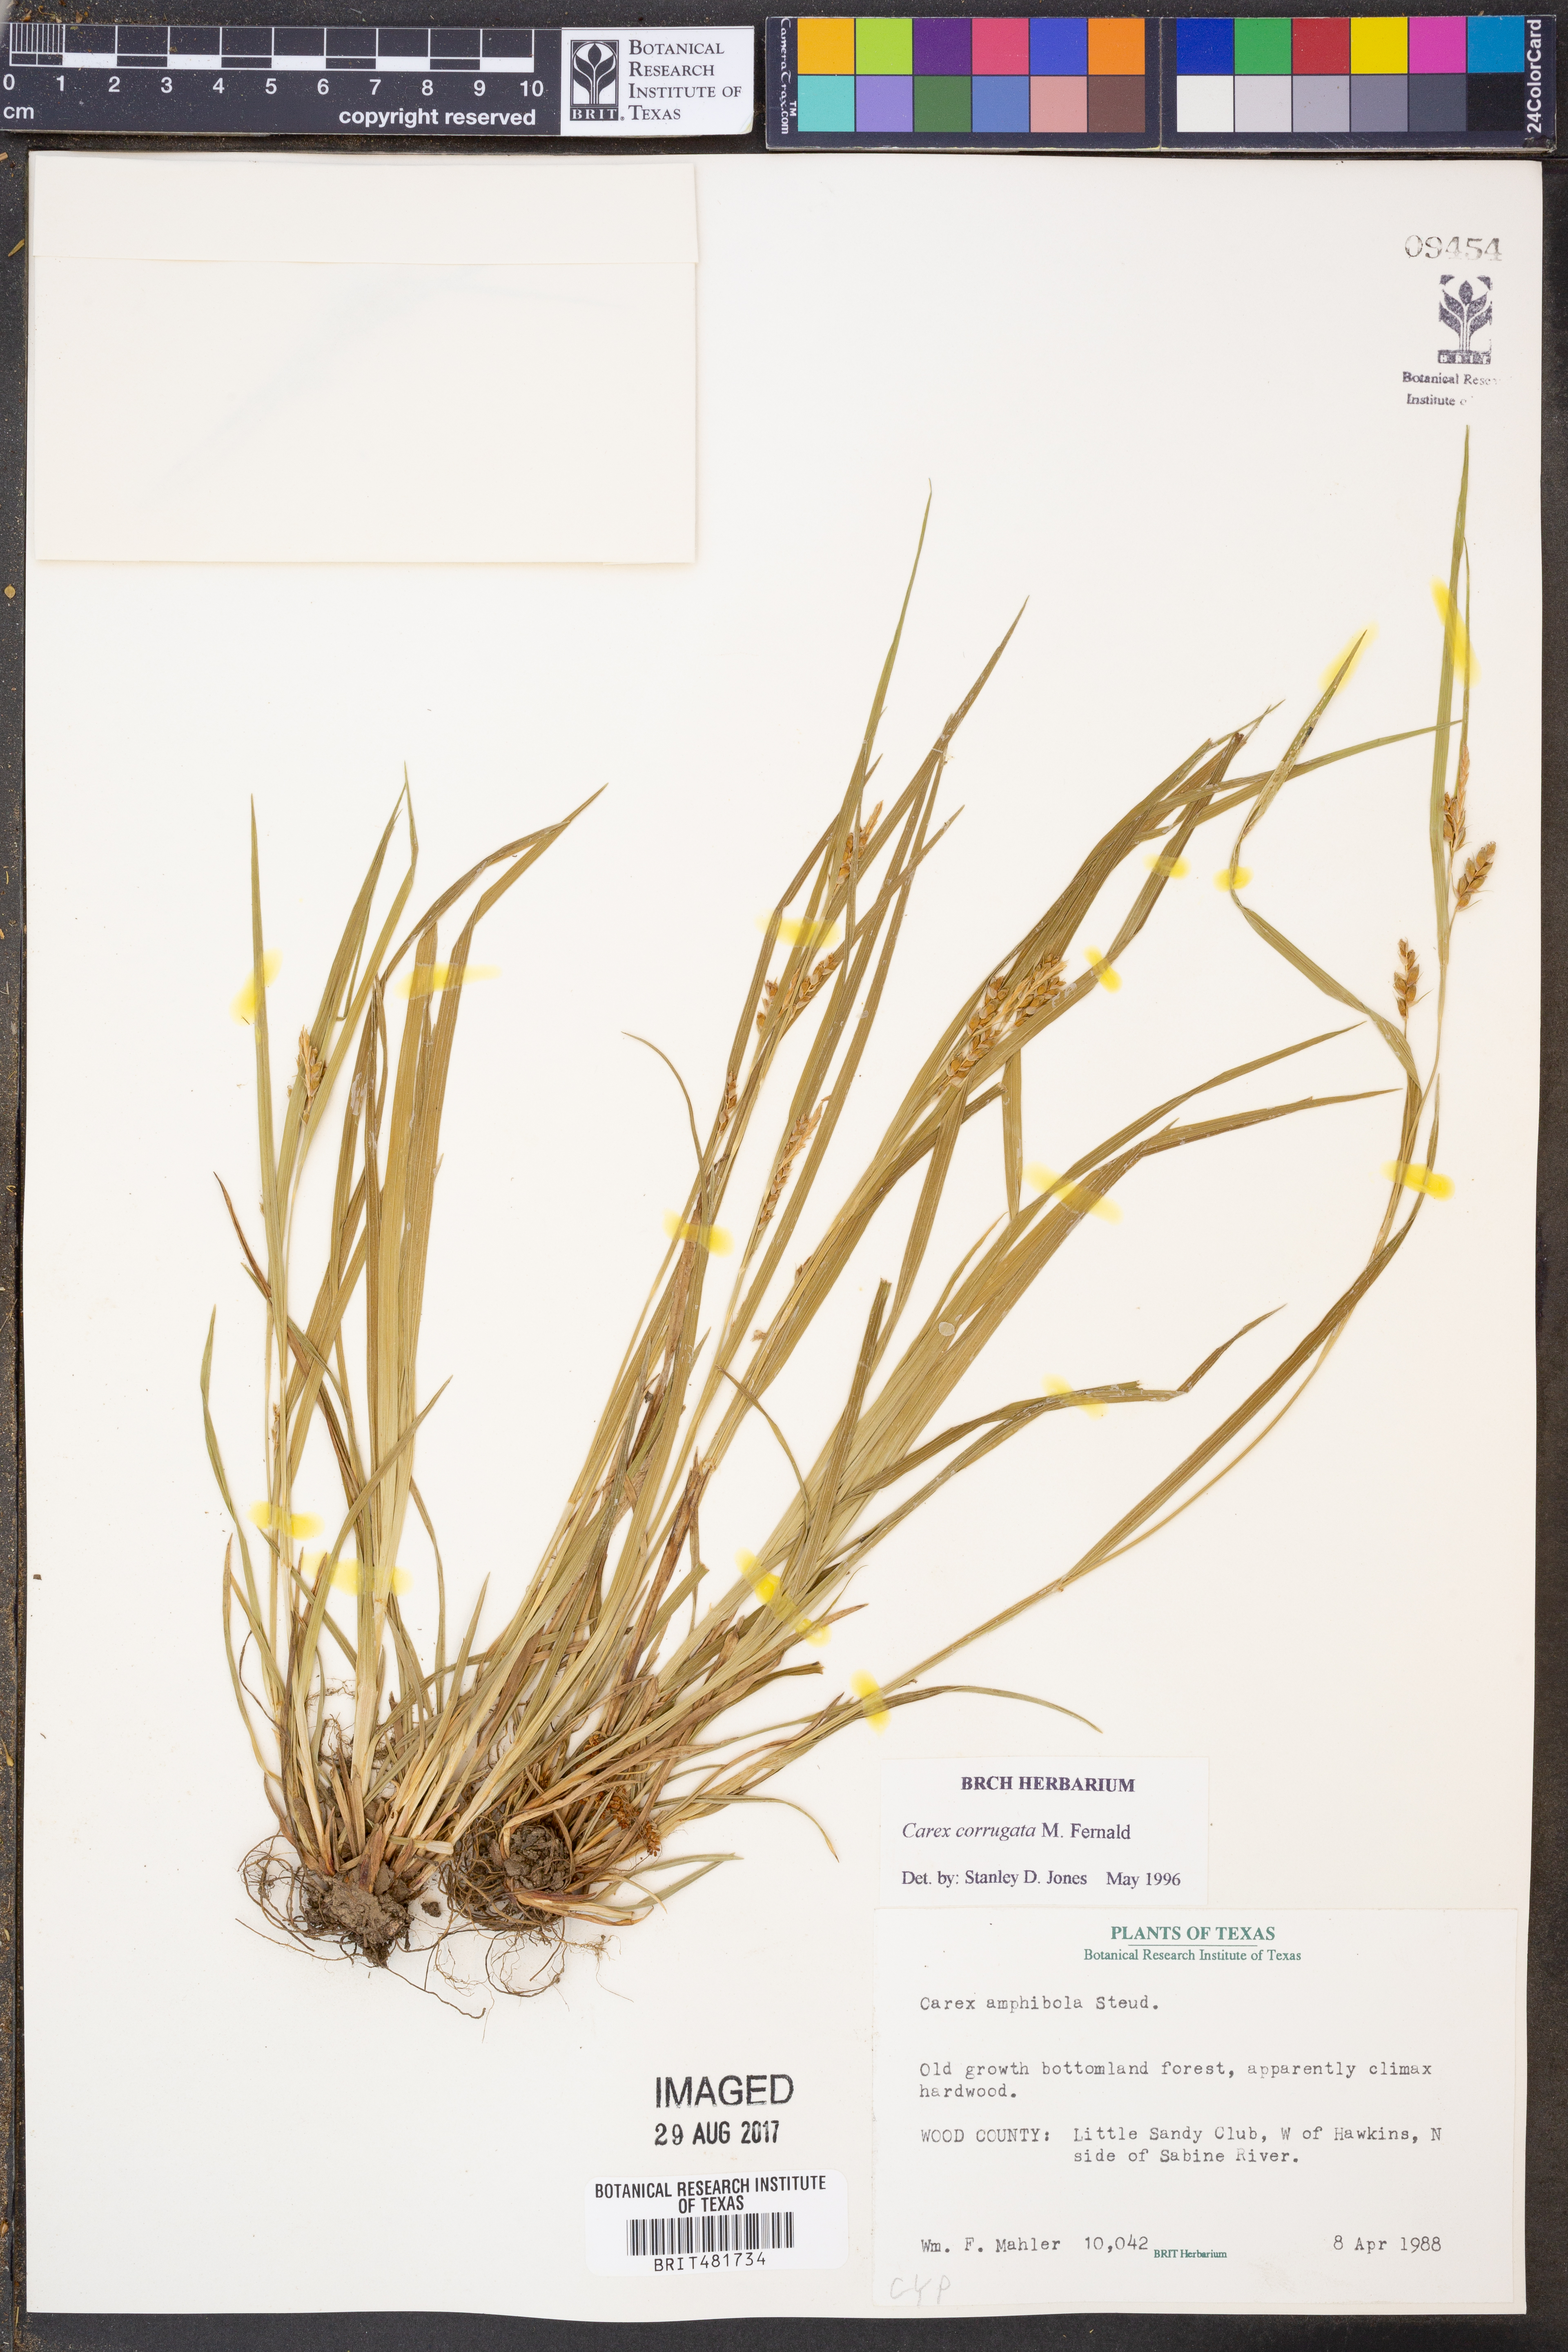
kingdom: Plantae
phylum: Tracheophyta
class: Liliopsida
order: Poales
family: Cyperaceae
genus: Carex
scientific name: Carex corrugata
